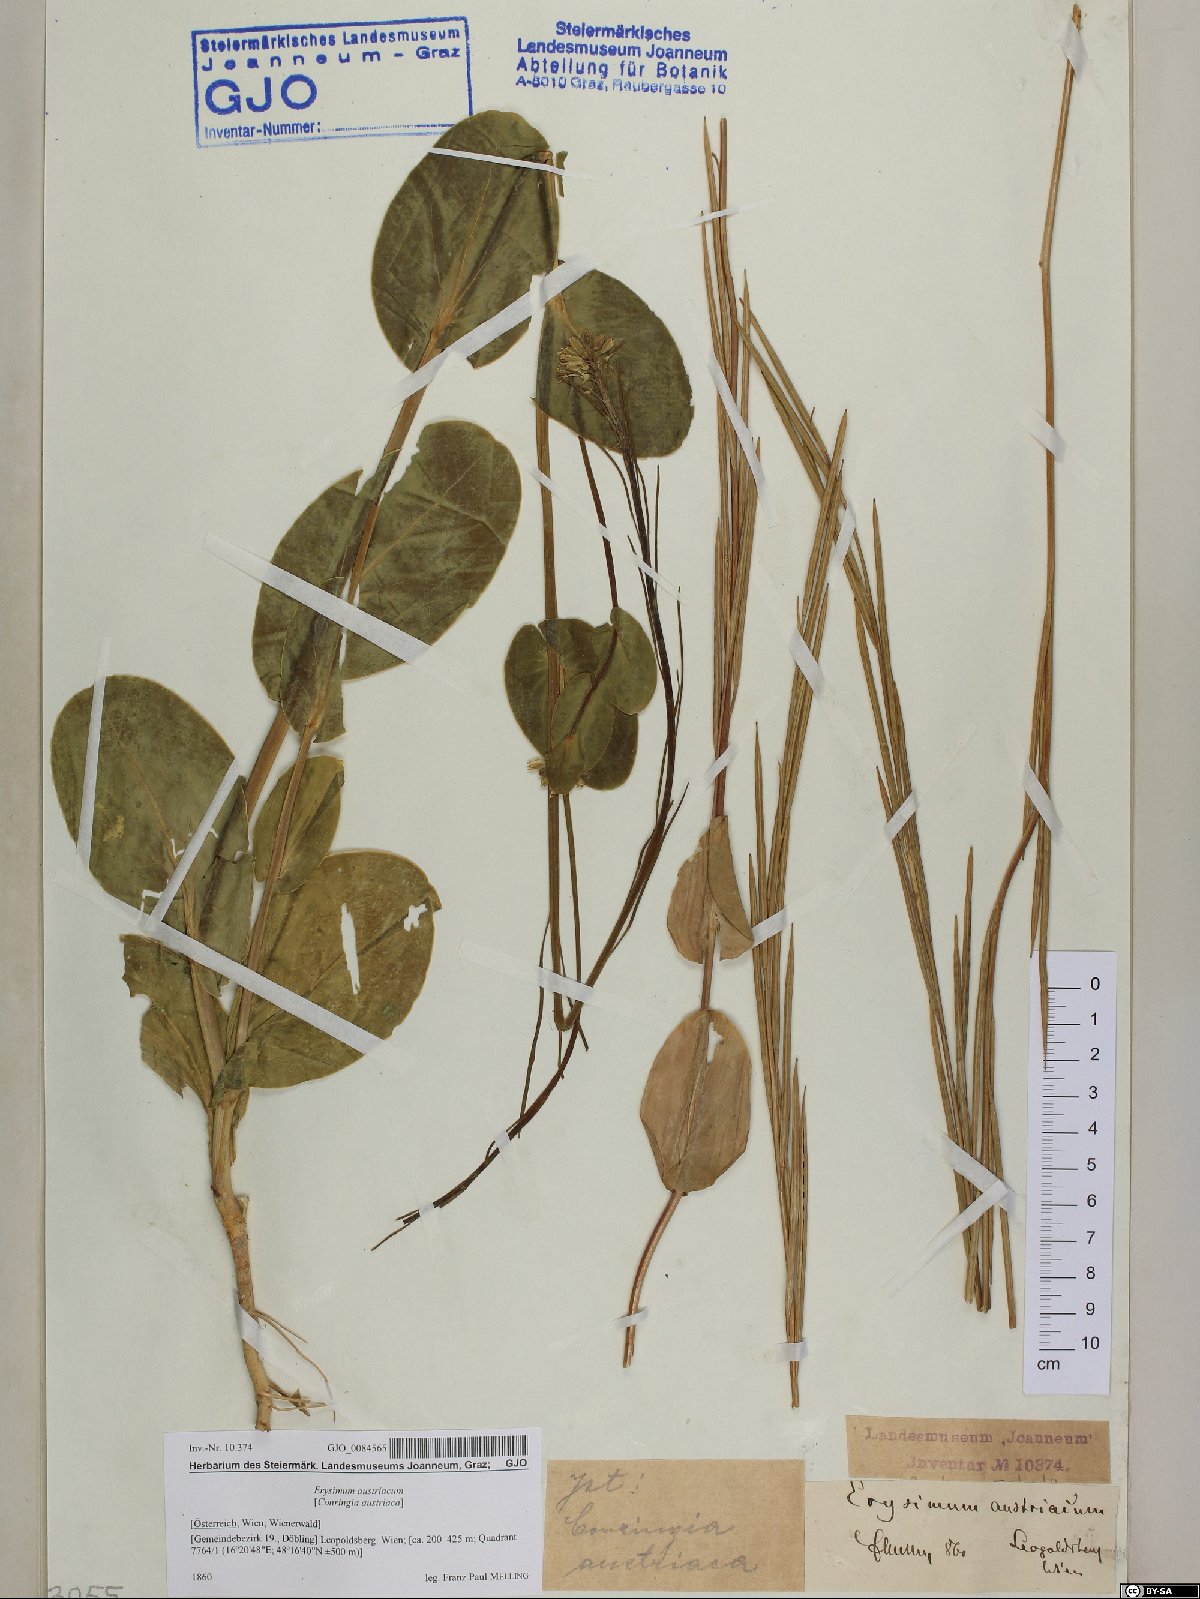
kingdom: Plantae
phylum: Tracheophyta
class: Magnoliopsida
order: Brassicales
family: Brassicaceae
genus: Conringia
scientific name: Conringia austriaca
